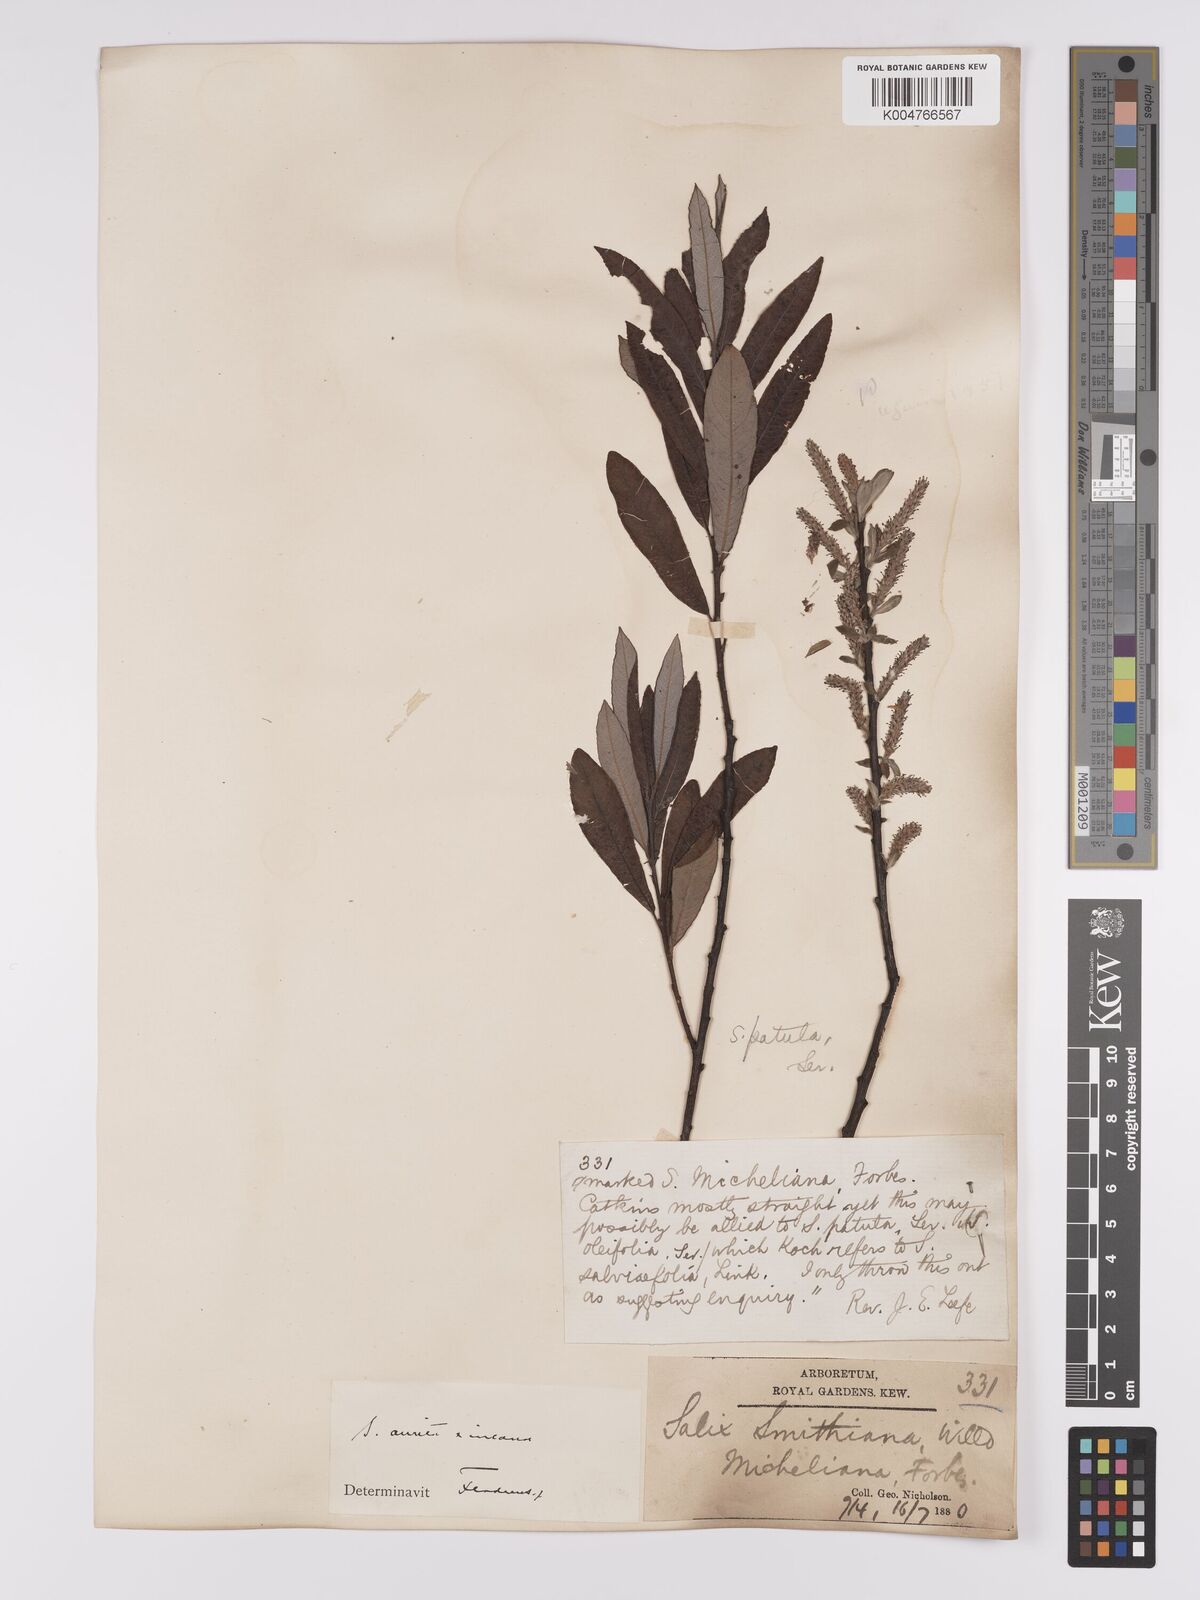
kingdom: Plantae
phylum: Tracheophyta
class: Magnoliopsida
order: Malpighiales
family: Salicaceae
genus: Salix
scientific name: Salix
